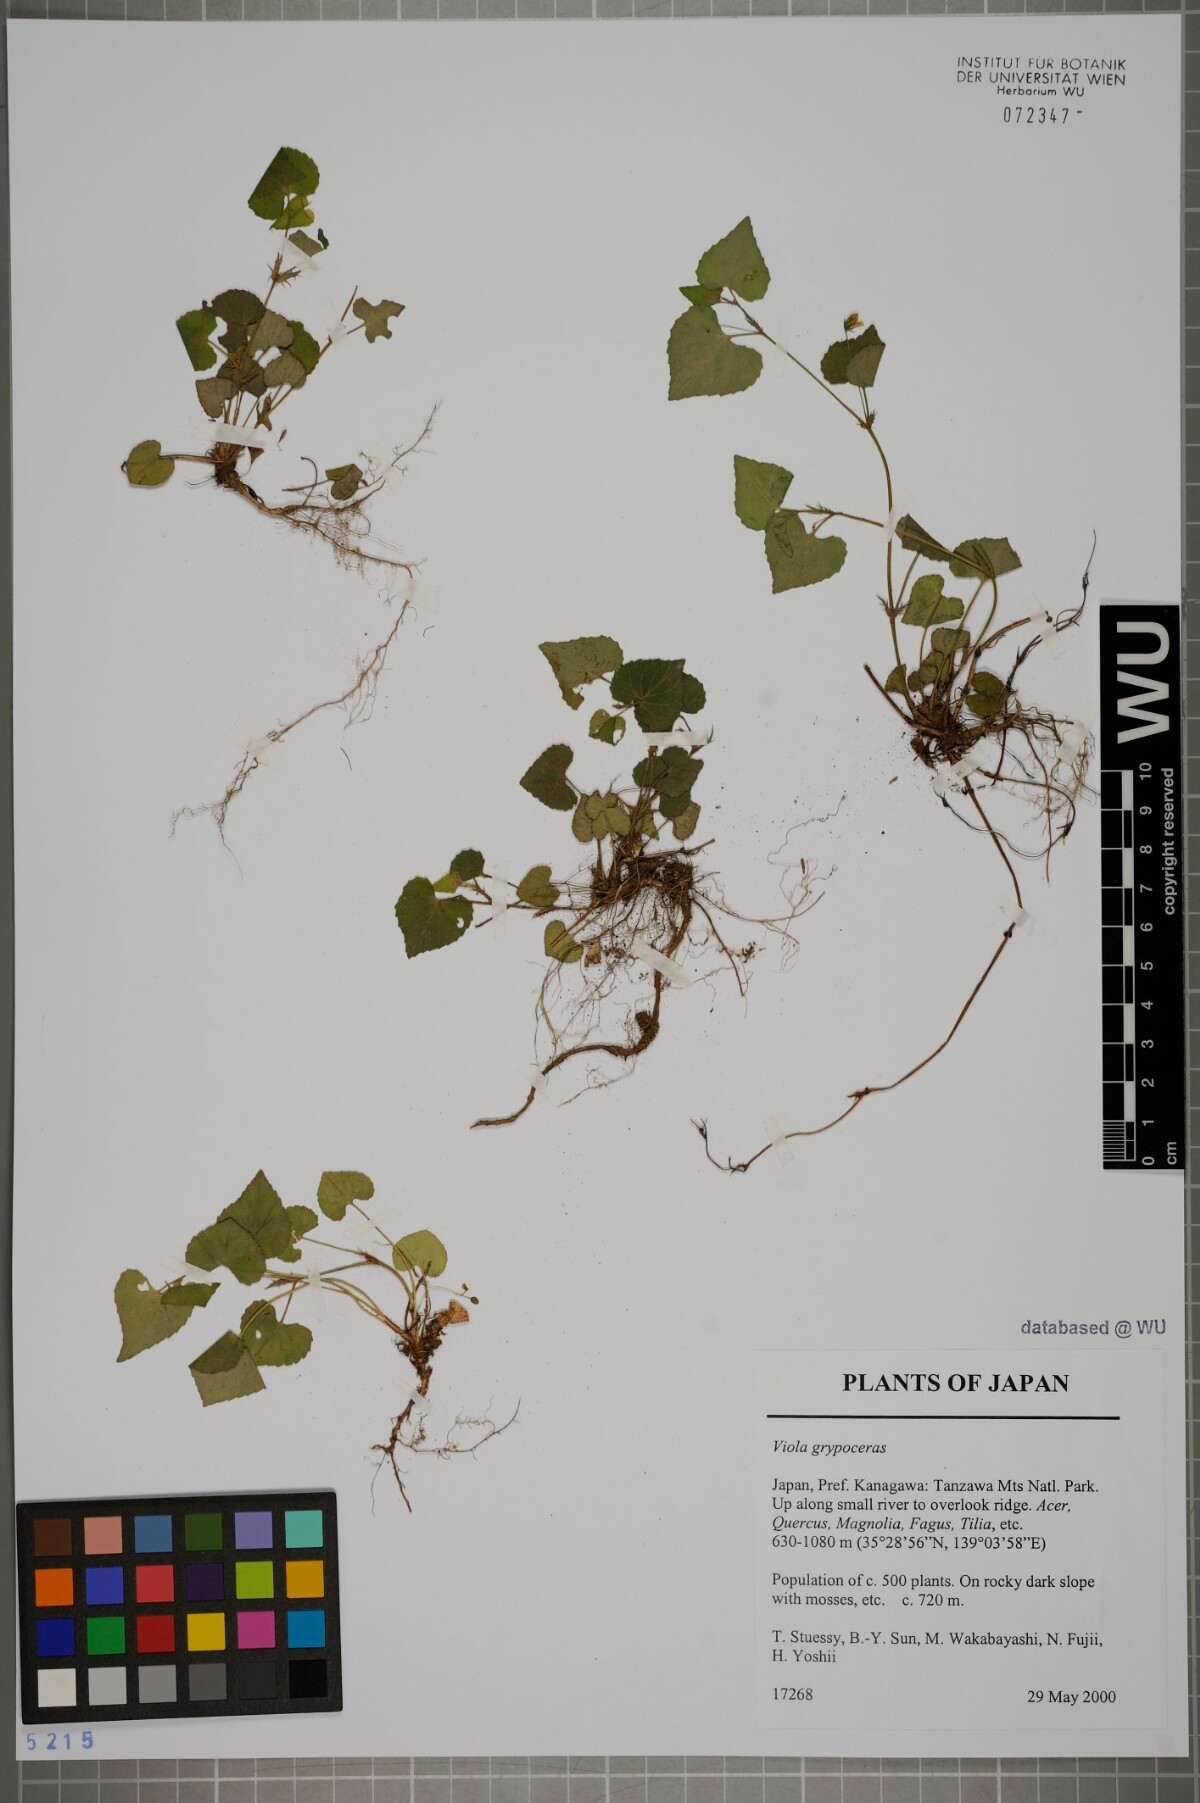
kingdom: Plantae
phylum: Tracheophyta
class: Magnoliopsida
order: Malpighiales
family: Violaceae
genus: Viola
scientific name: Viola grypoceras
